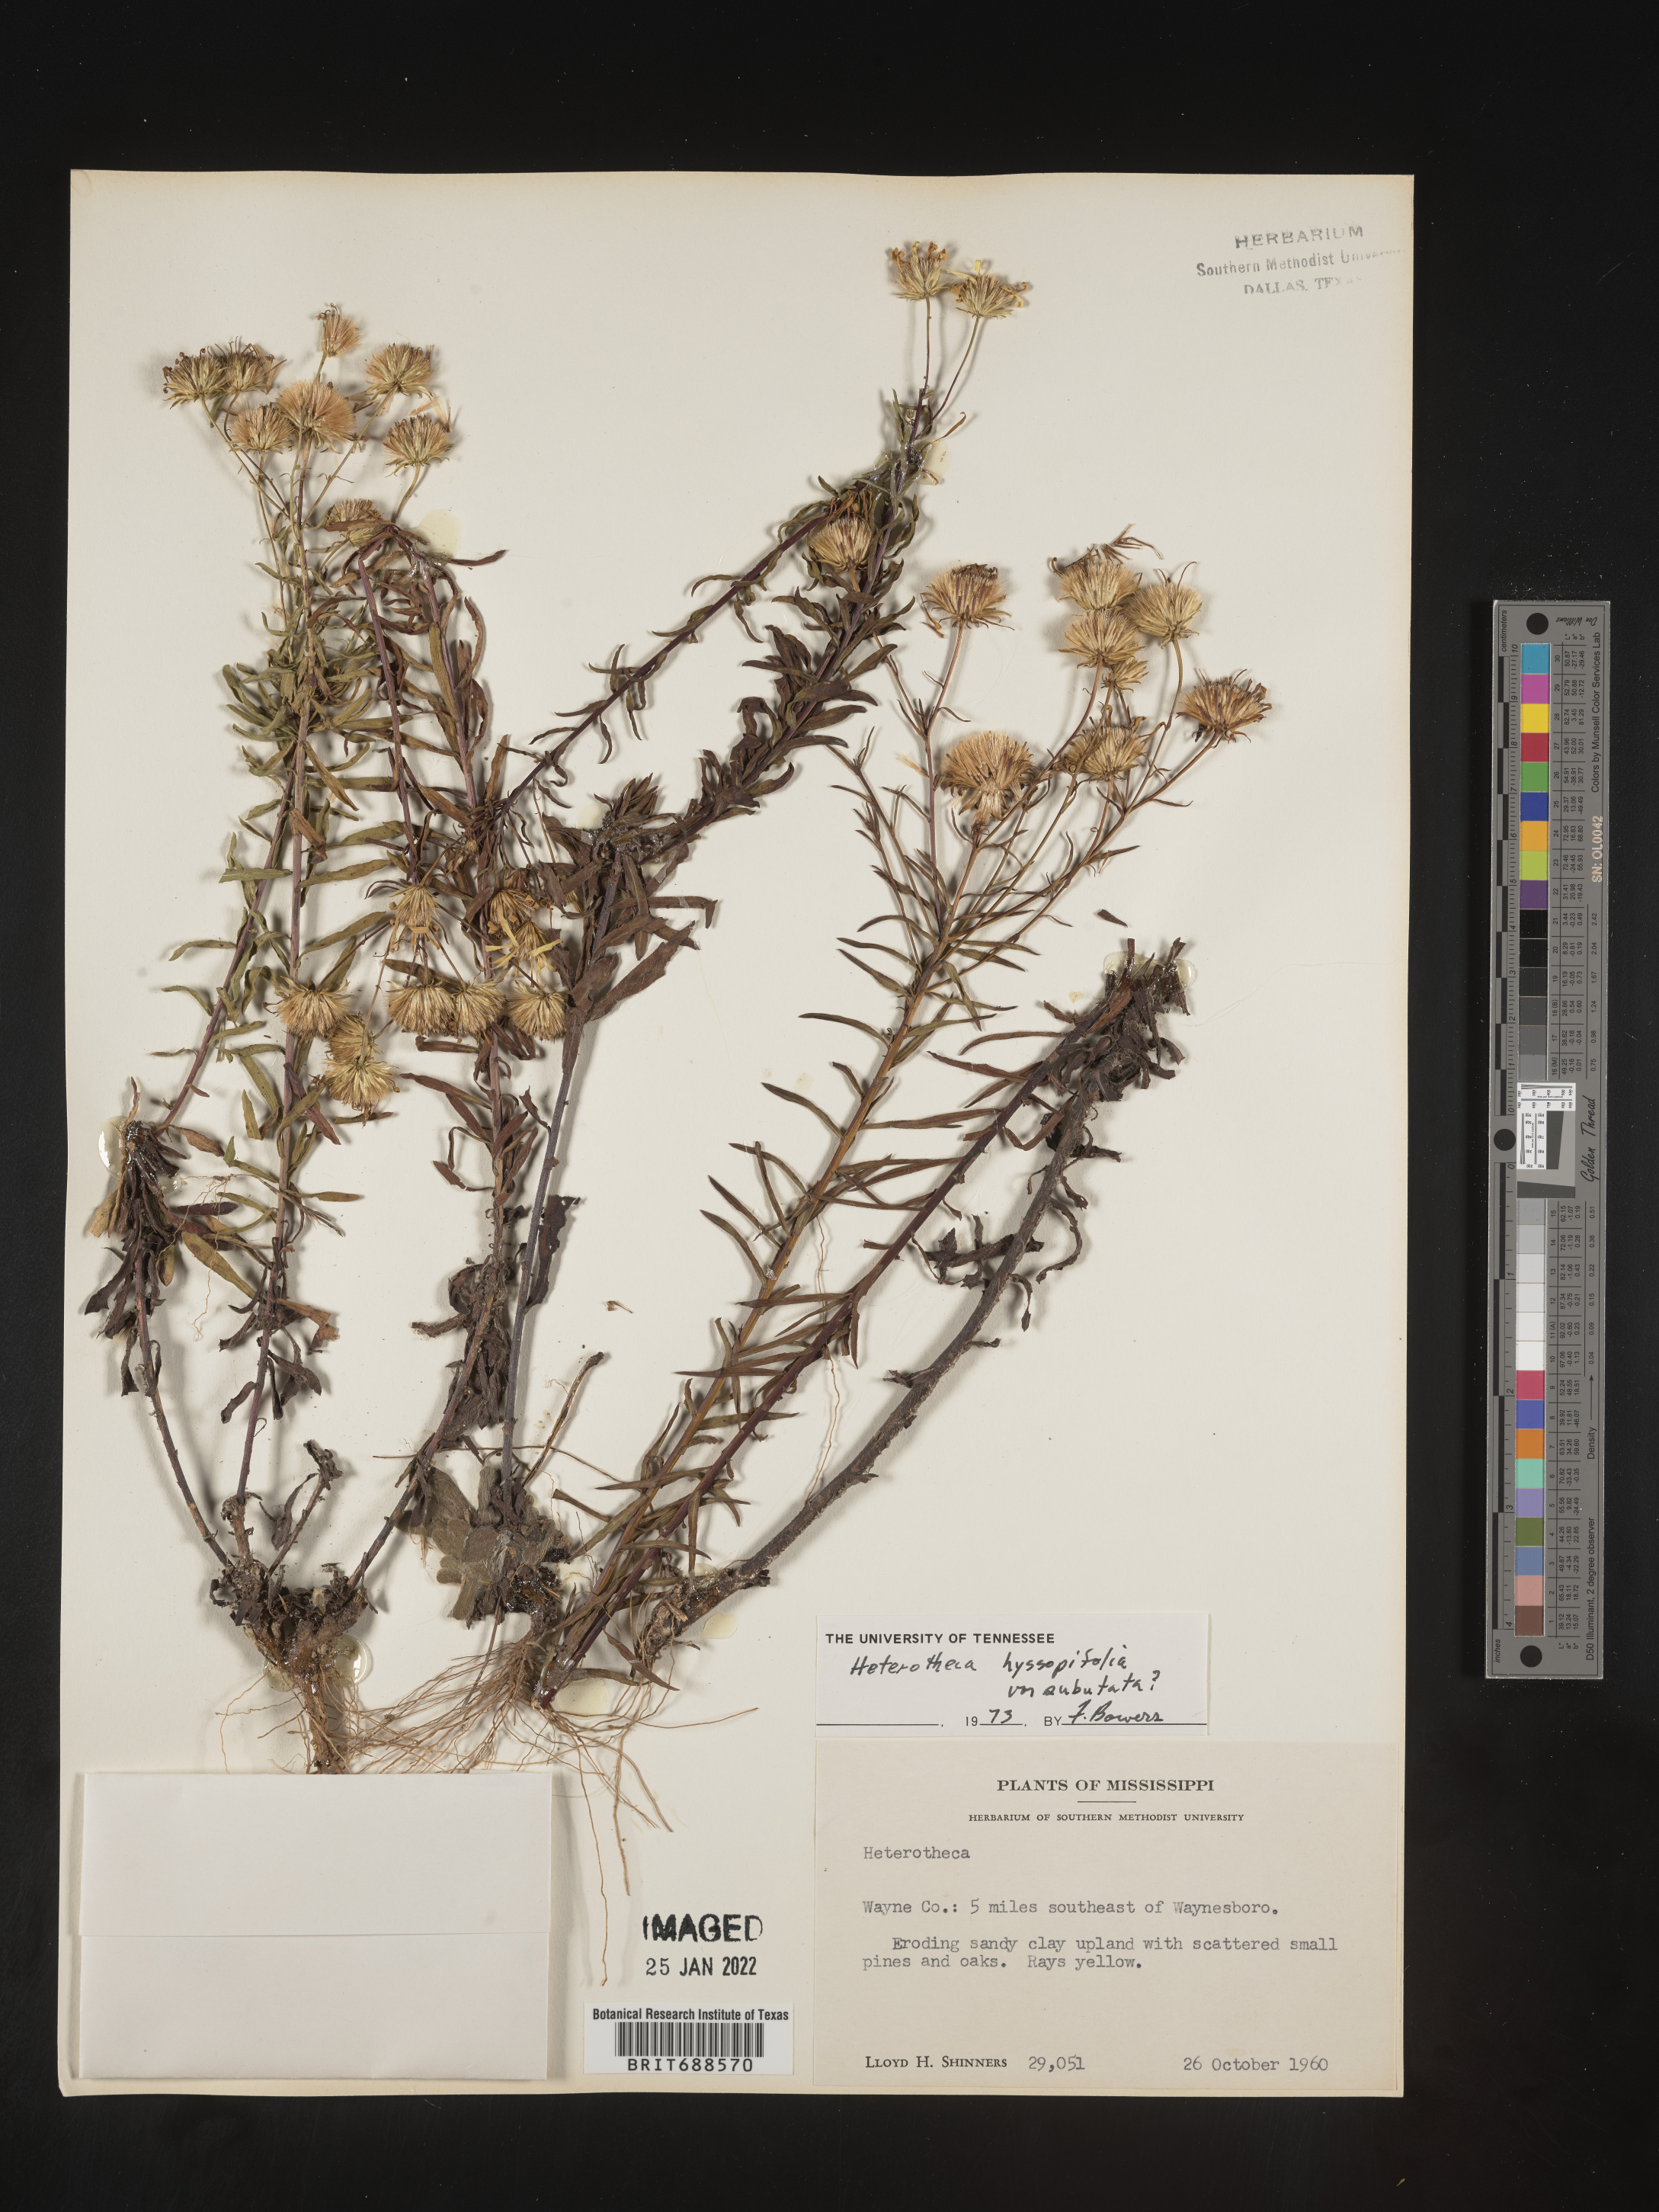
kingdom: Plantae
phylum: Tracheophyta
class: Magnoliopsida
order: Asterales
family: Asteraceae
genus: Chrysopsis
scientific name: Chrysopsis gossypina
